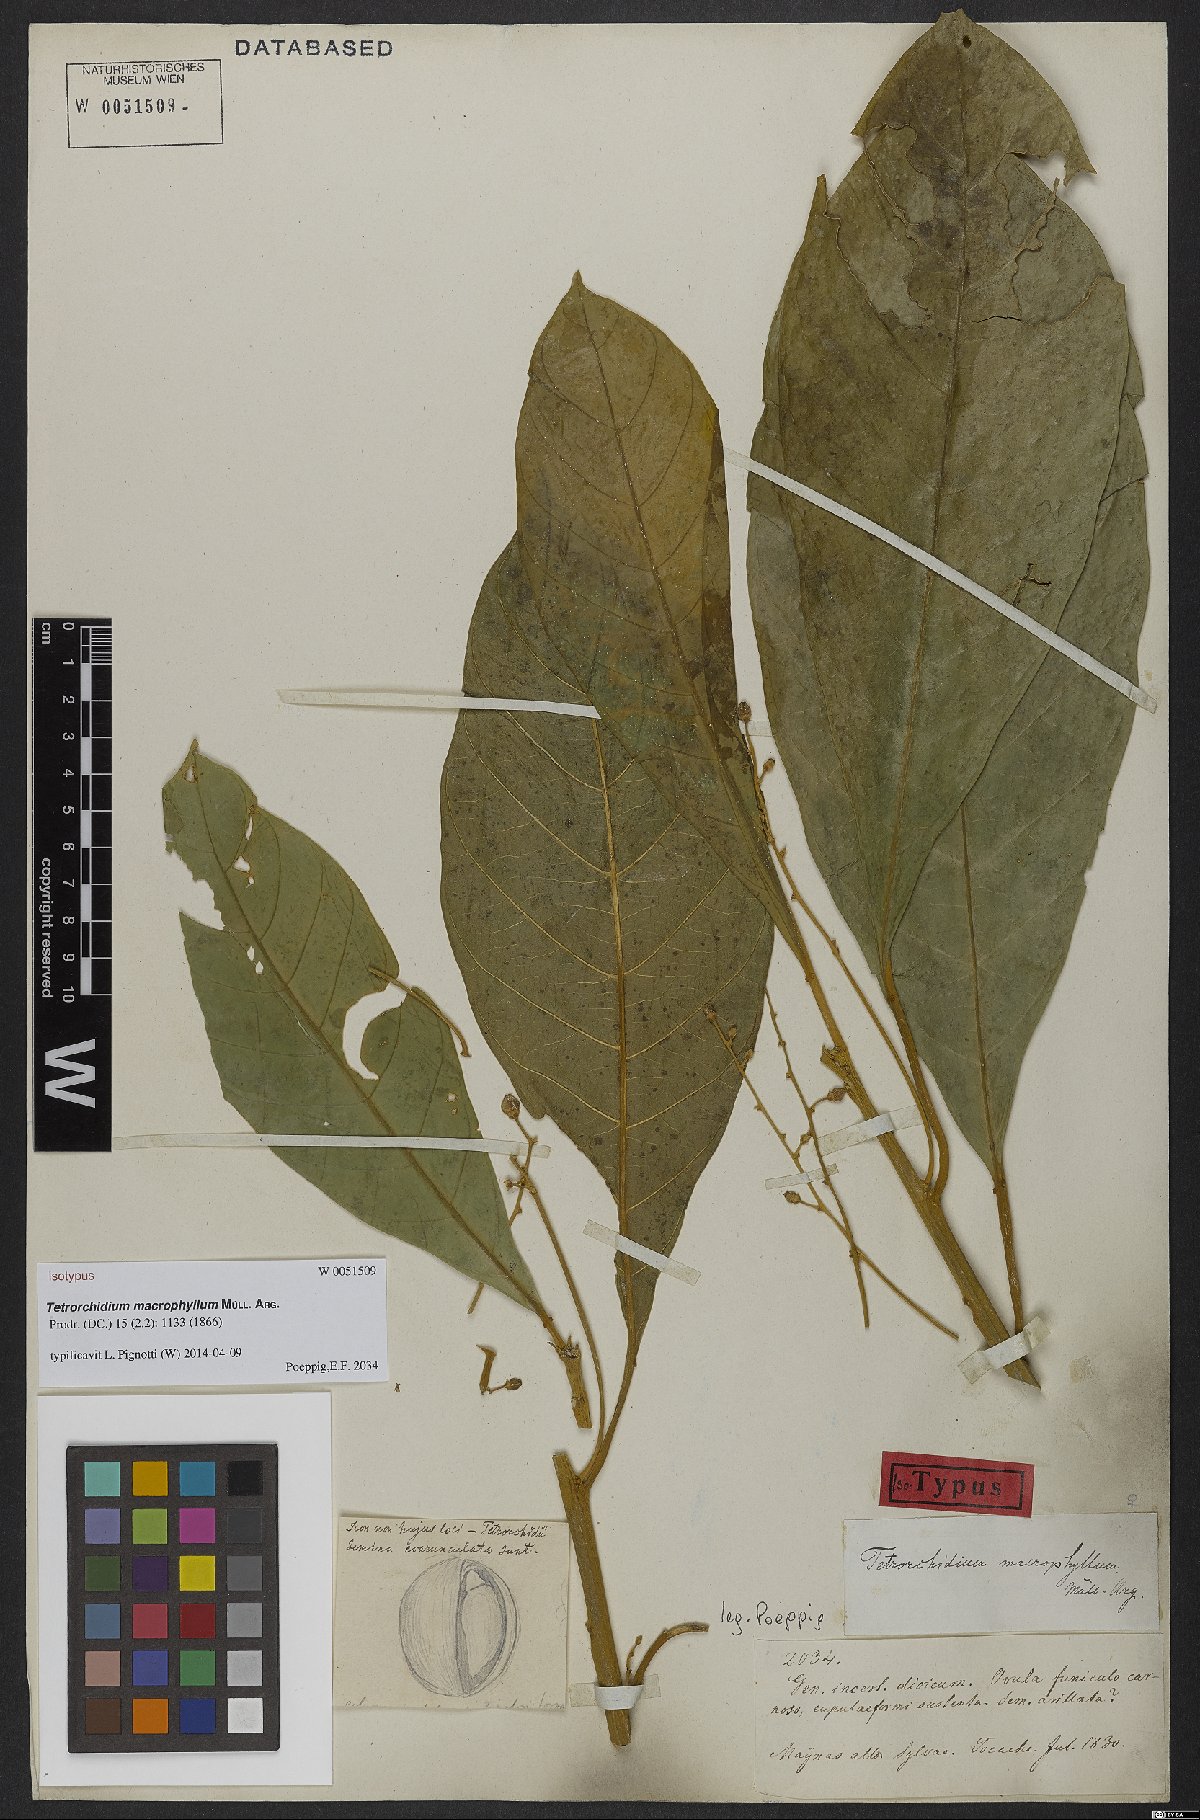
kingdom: Plantae
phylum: Tracheophyta
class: Magnoliopsida
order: Malpighiales
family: Euphorbiaceae
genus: Tetrorchidium
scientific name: Tetrorchidium macrophyllum
